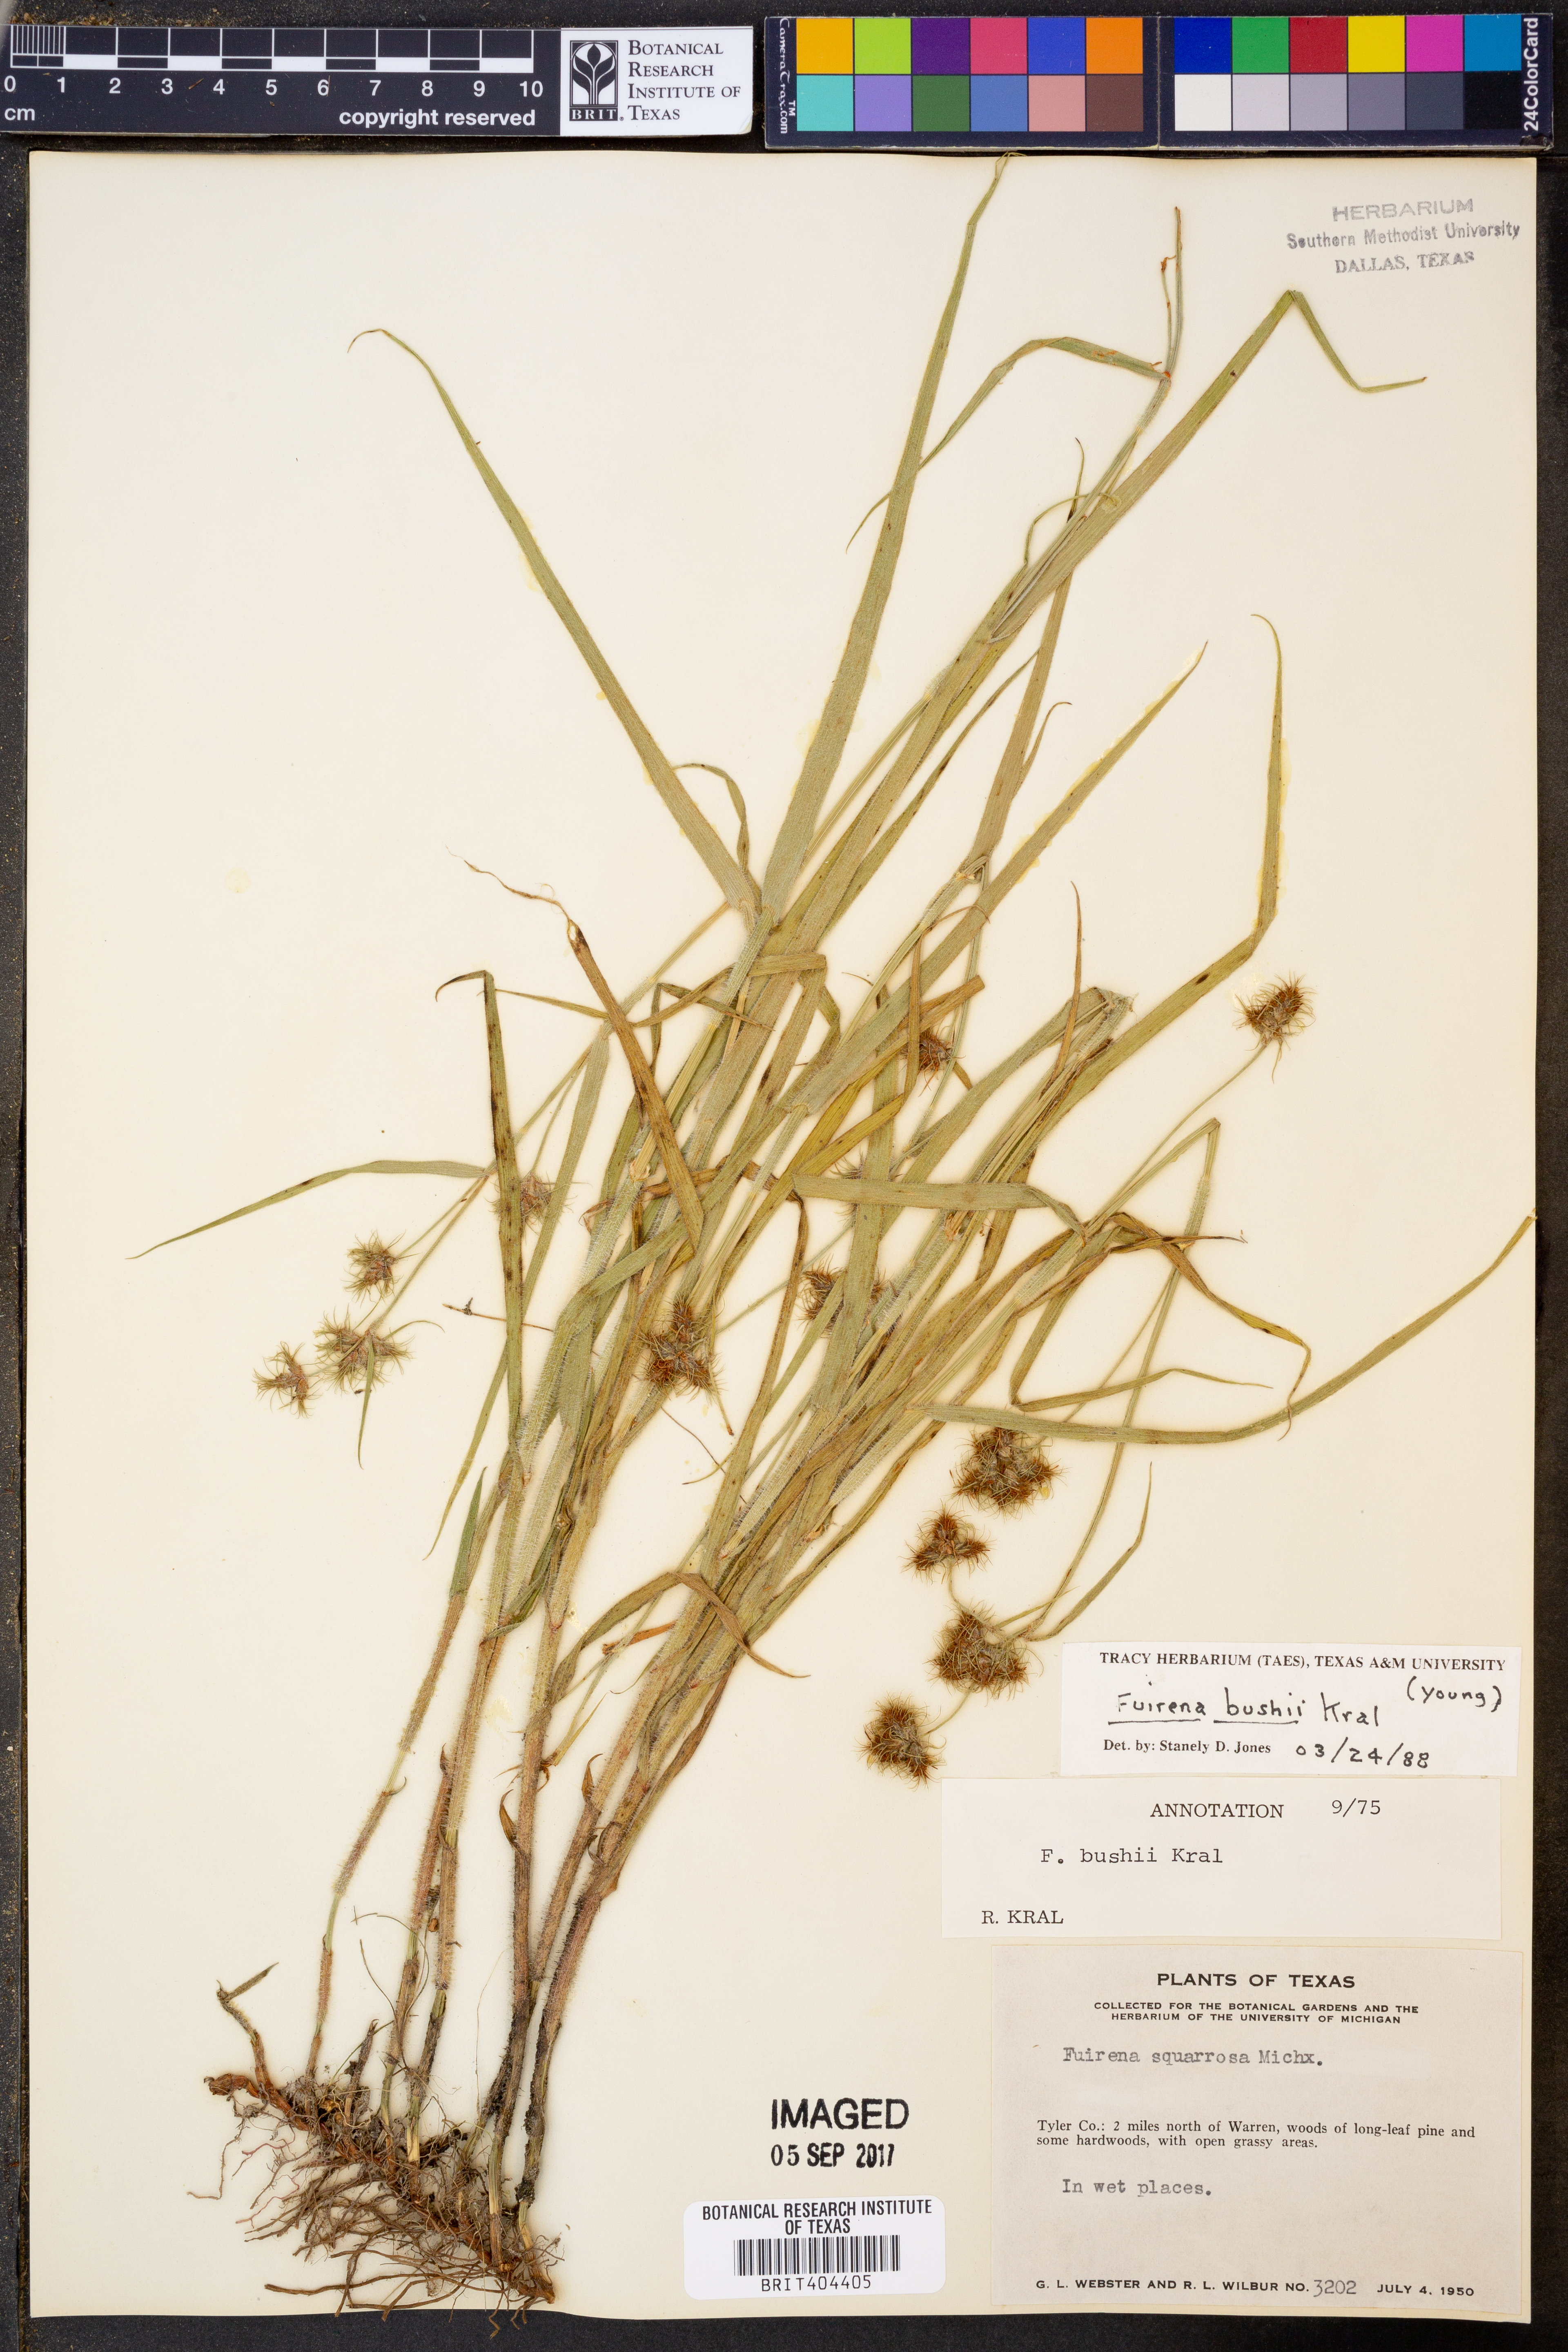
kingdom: Plantae
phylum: Tracheophyta
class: Liliopsida
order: Poales
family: Cyperaceae
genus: Fuirena
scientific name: Fuirena bushii
